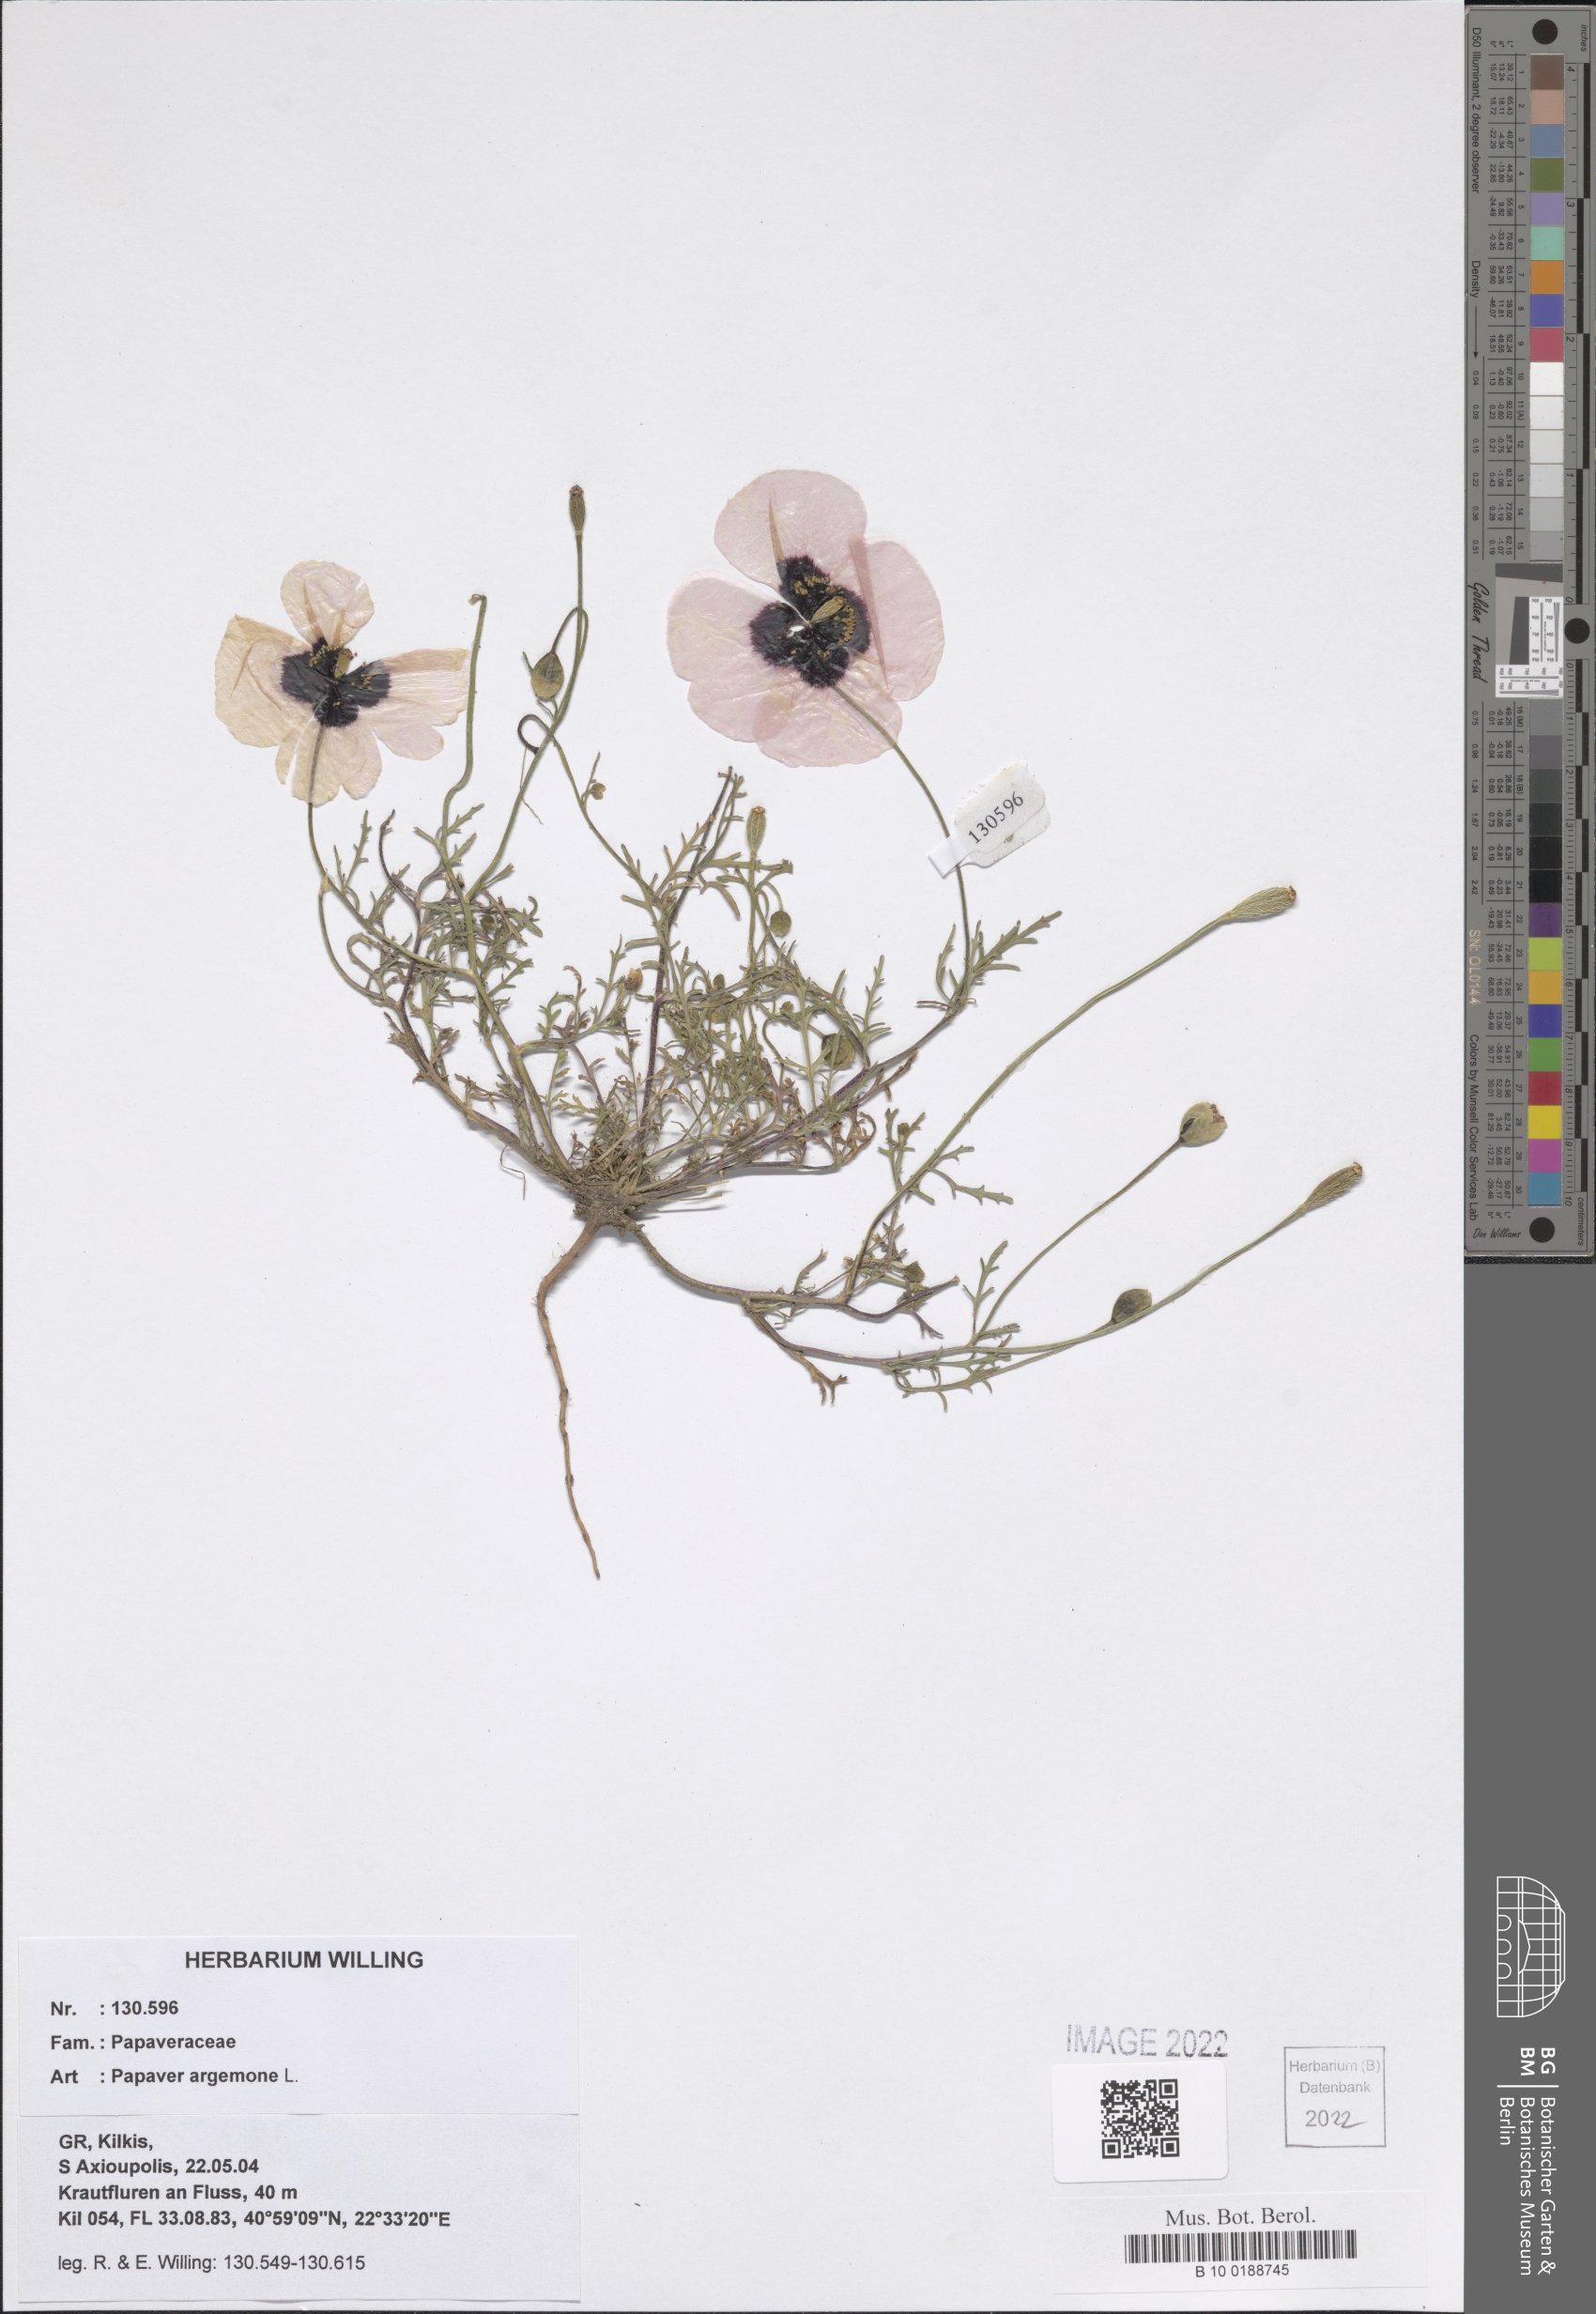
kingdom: Plantae
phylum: Tracheophyta
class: Magnoliopsida
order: Ranunculales
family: Papaveraceae
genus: Roemeria
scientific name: Roemeria argemone
